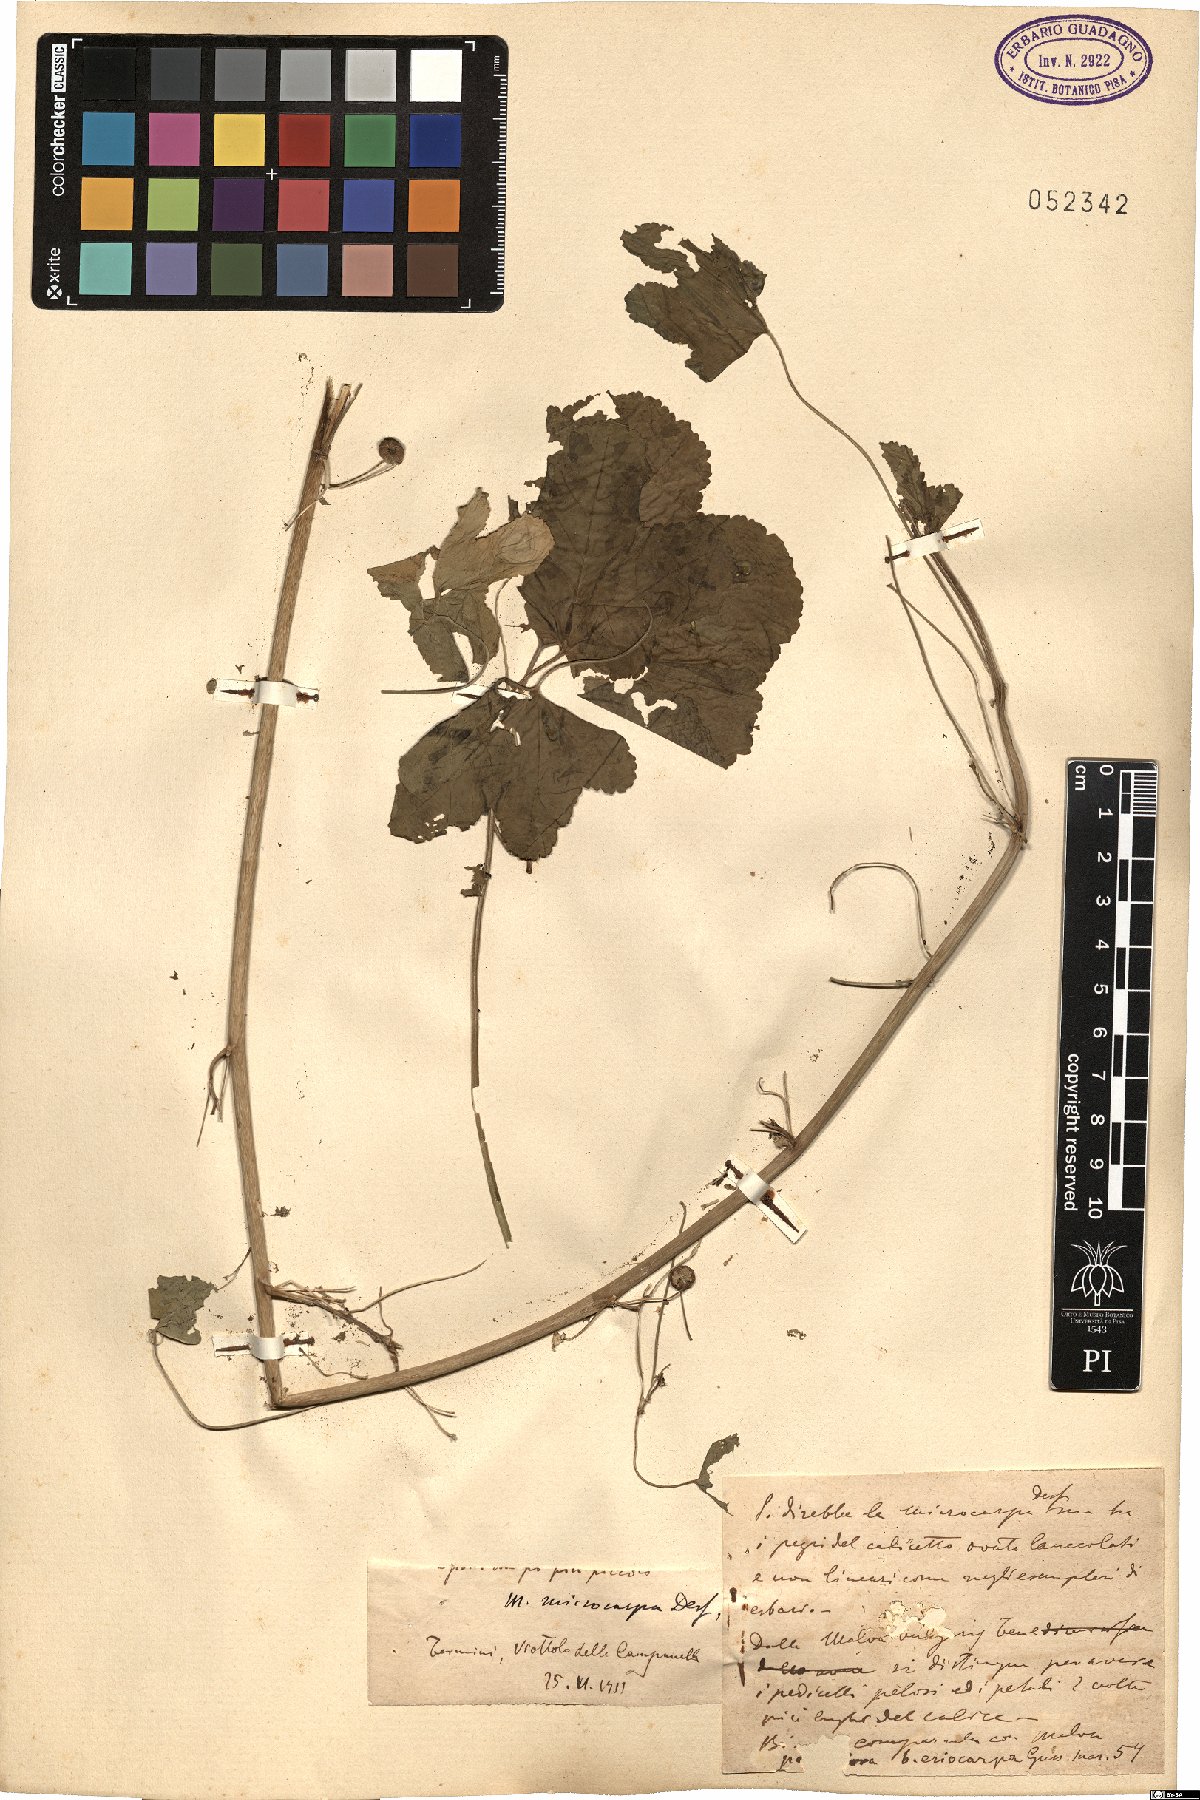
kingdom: Plantae
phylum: Tracheophyta
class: Magnoliopsida
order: Malvales
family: Malvaceae
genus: Malva
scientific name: Malva parviflora
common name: Least mallow
